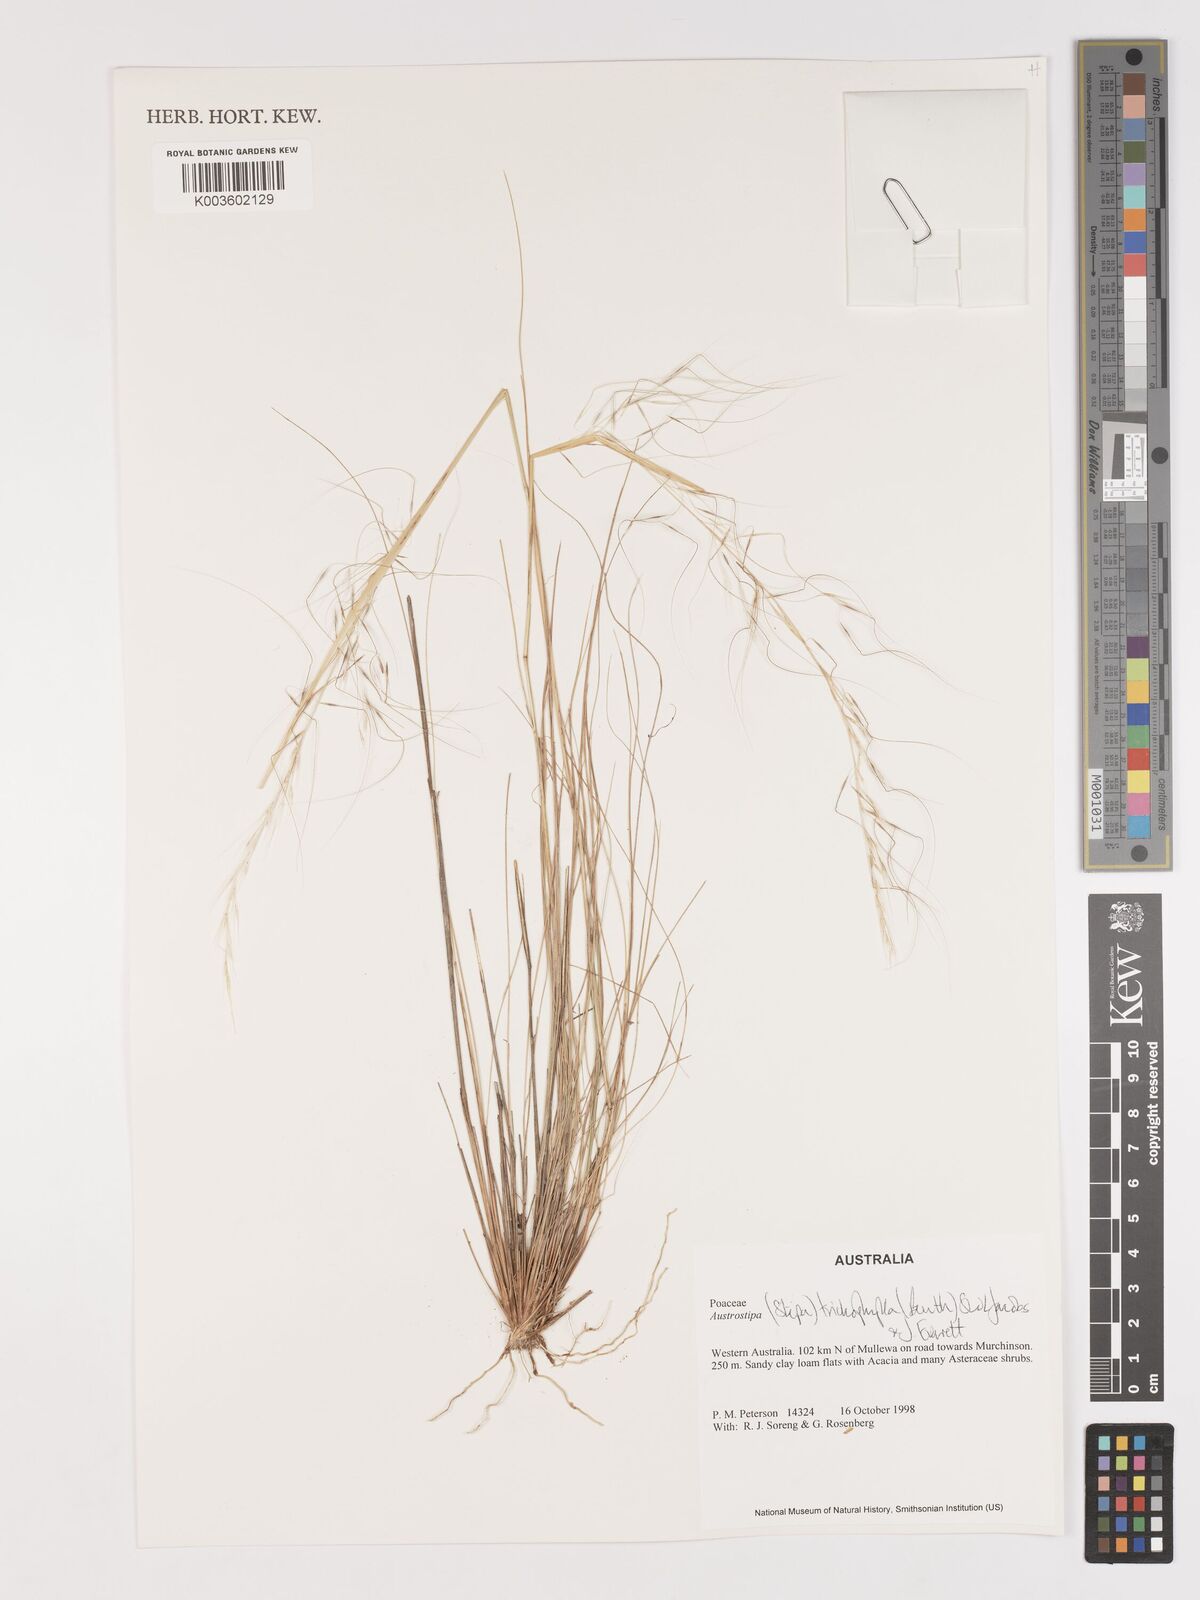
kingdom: Plantae
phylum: Tracheophyta
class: Liliopsida
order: Poales
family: Poaceae
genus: Austrostipa
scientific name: Austrostipa trichophylla
